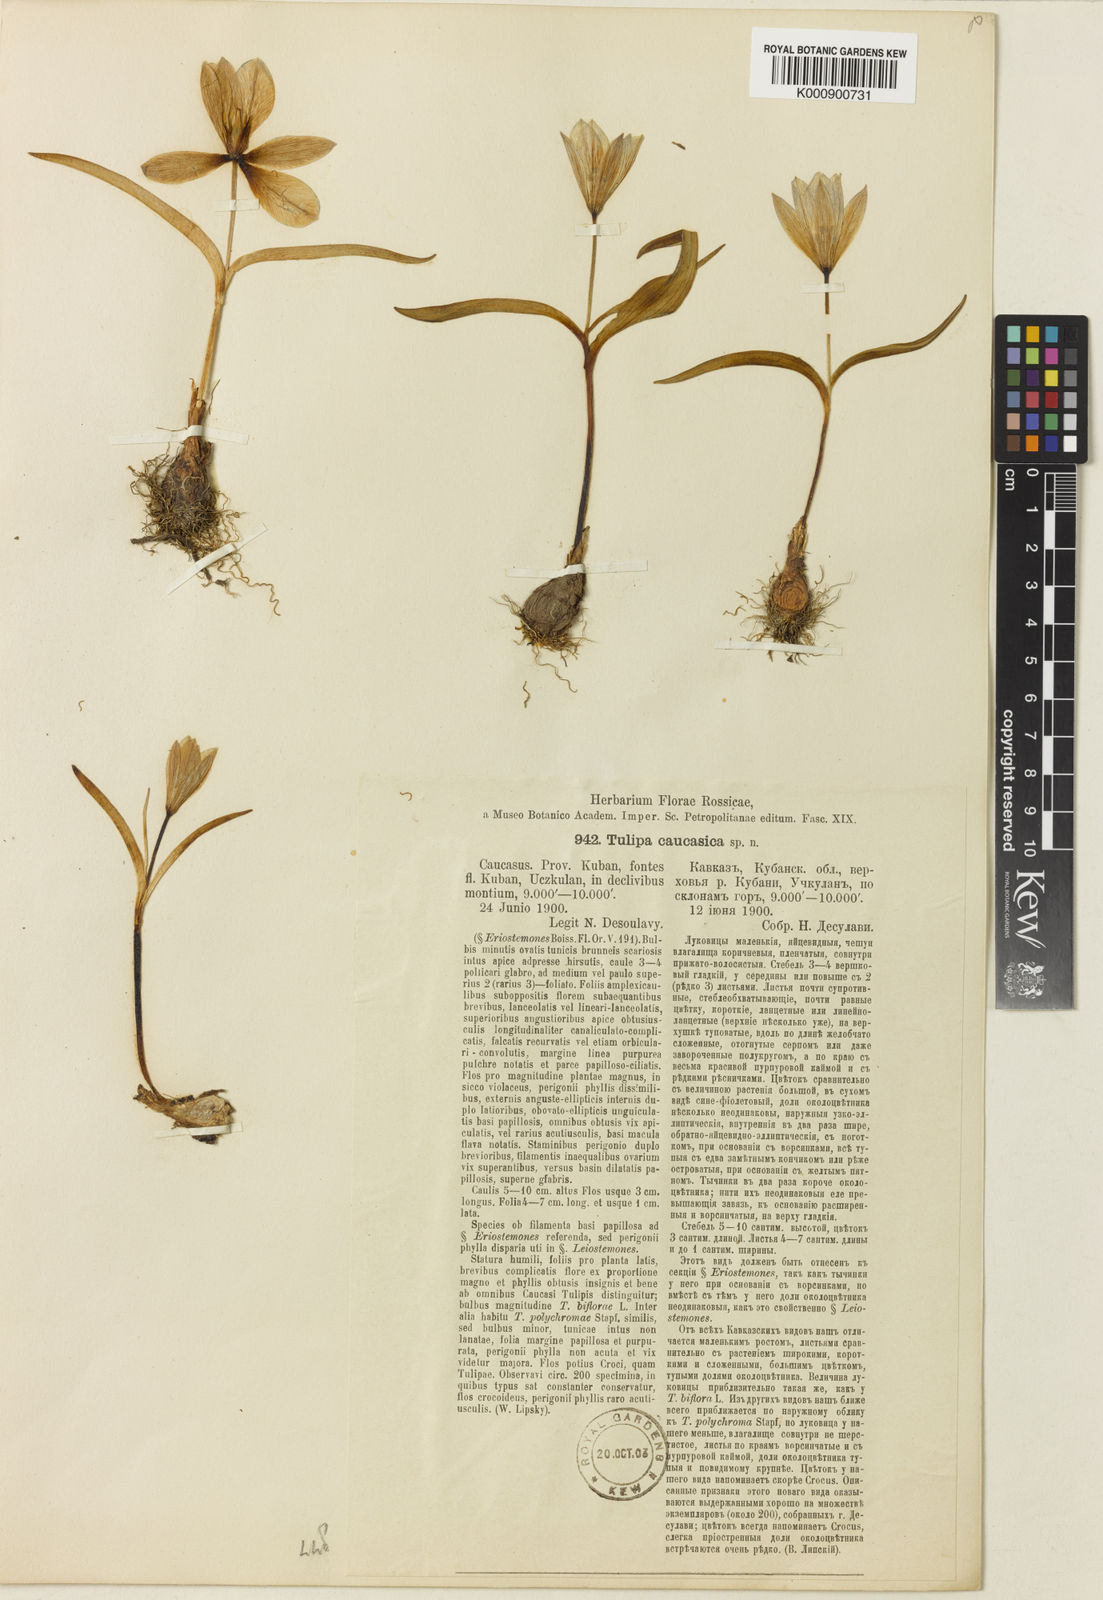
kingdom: Plantae
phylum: Tracheophyta
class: Liliopsida
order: Liliales
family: Liliaceae
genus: Tulipa
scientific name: Tulipa humilis
